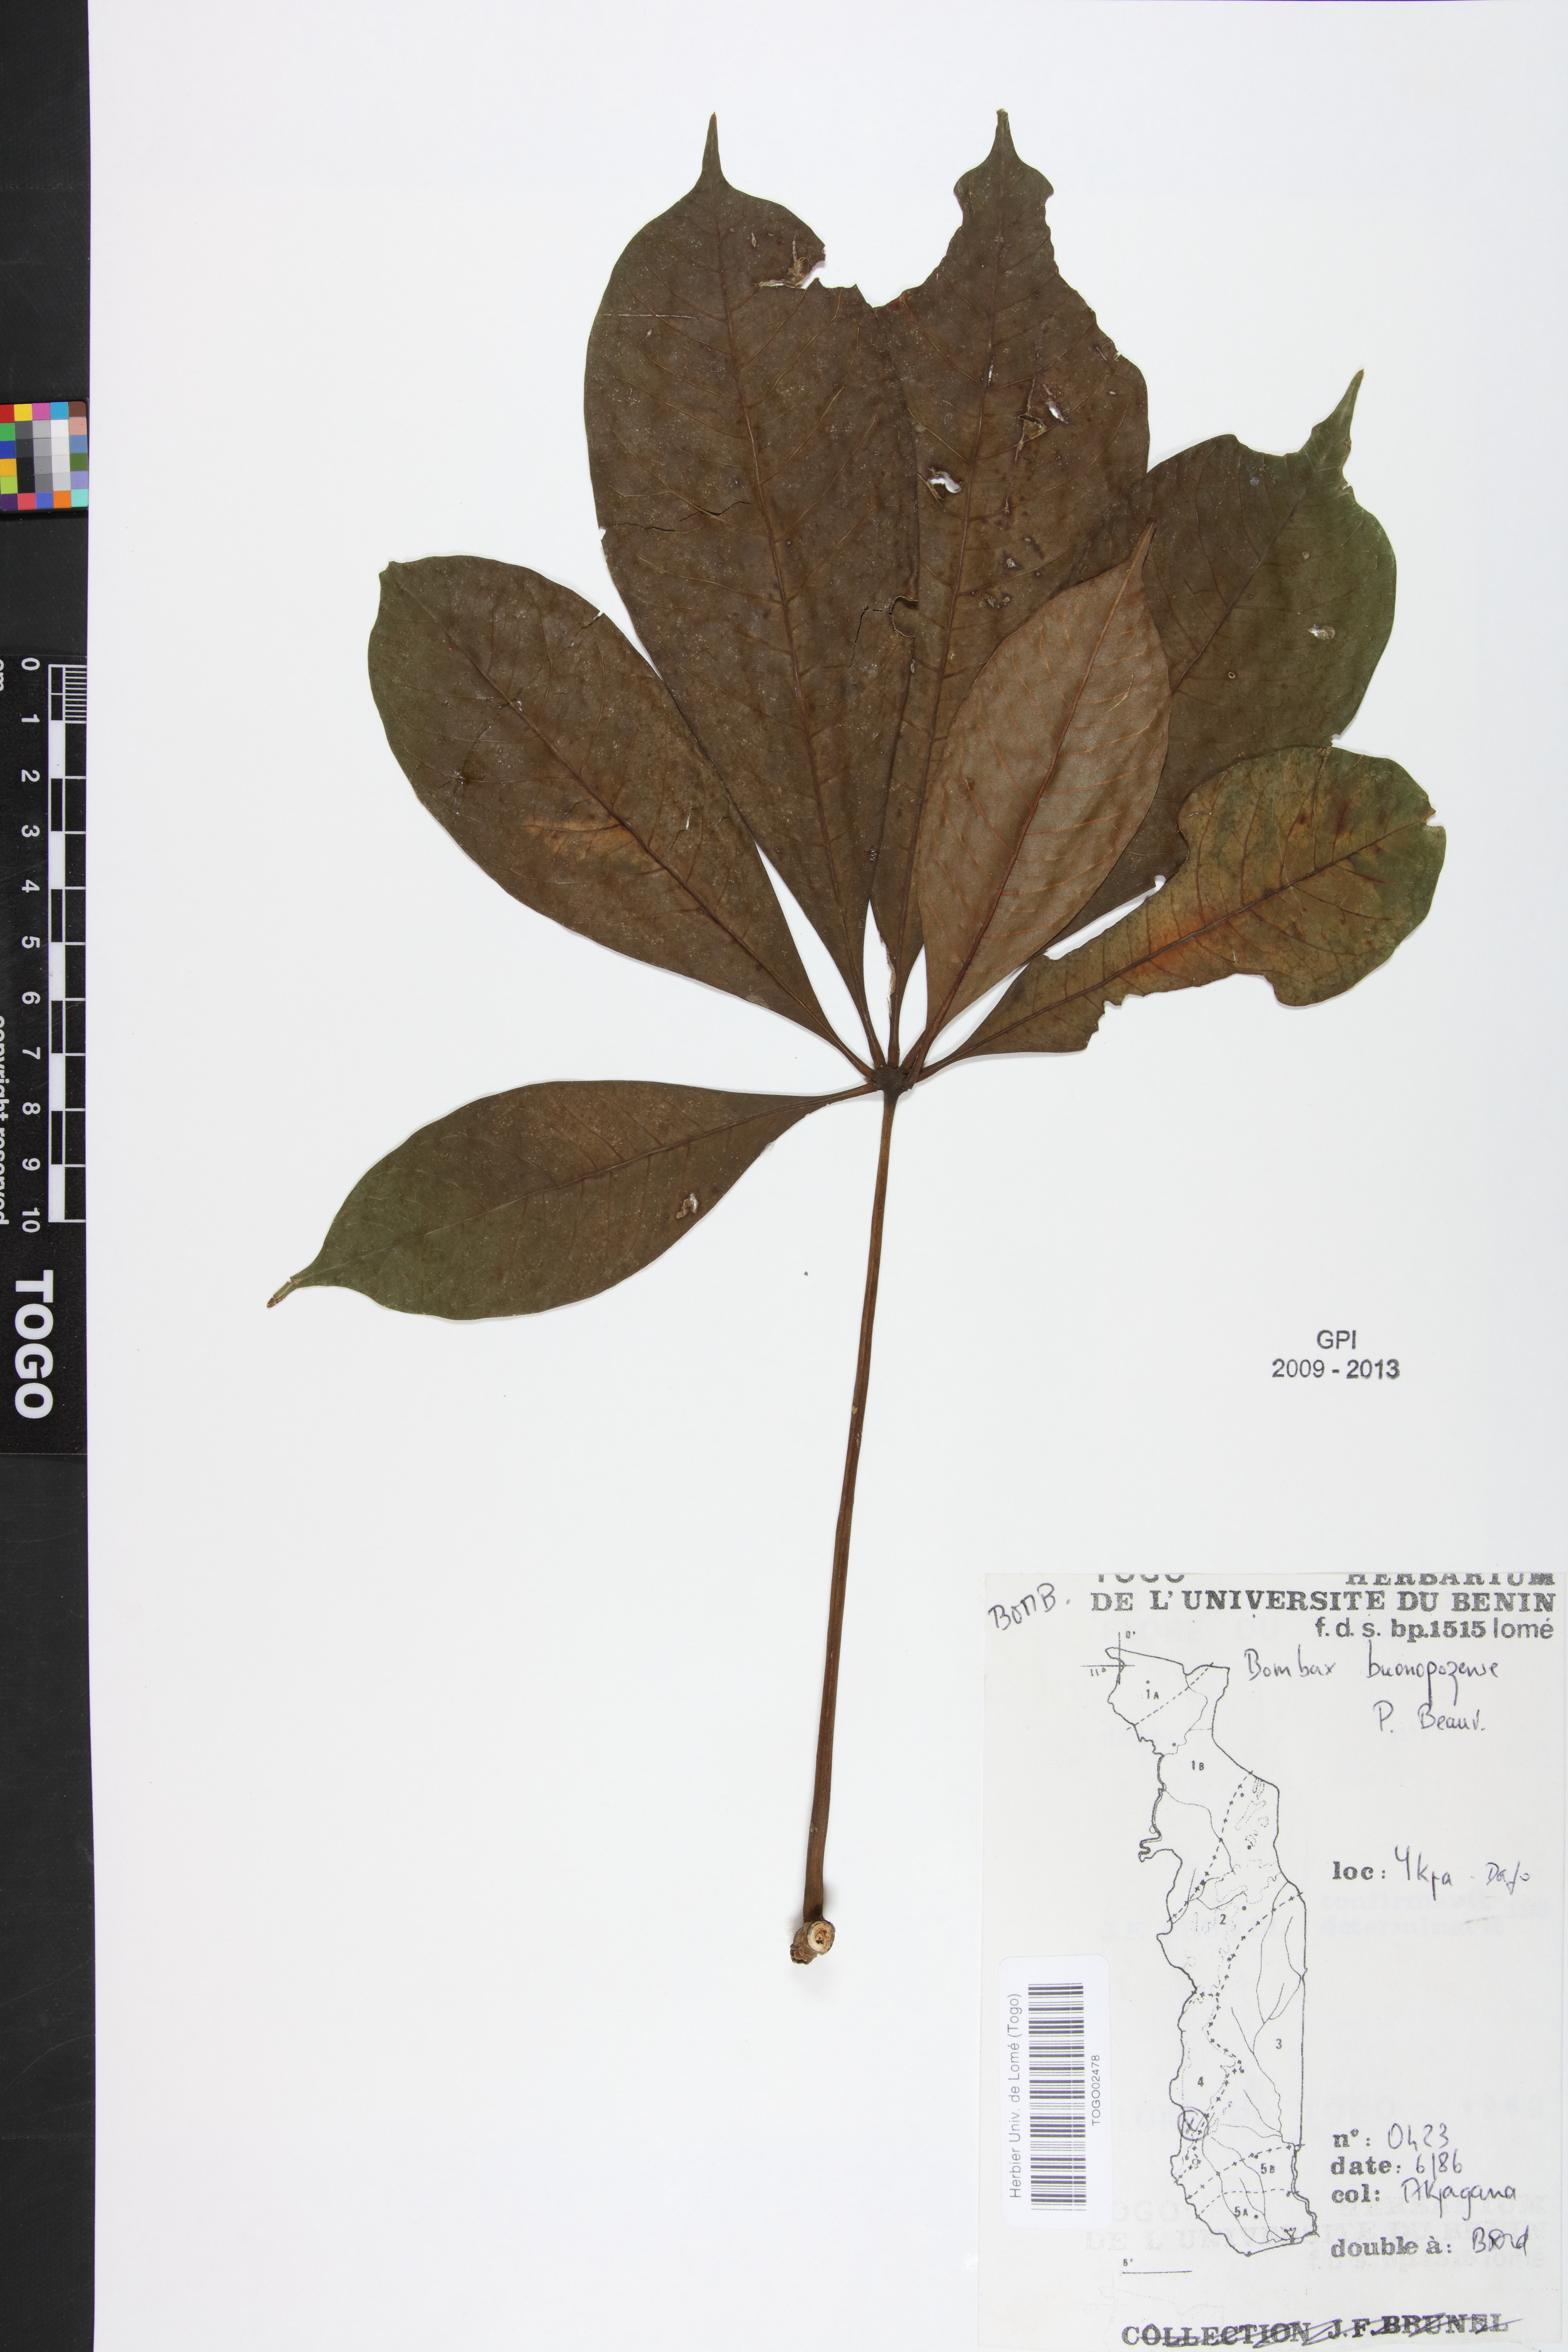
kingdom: Plantae
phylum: Tracheophyta
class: Magnoliopsida
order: Malvales
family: Malvaceae
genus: Bombax
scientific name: Bombax buonopozense
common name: Gold coast bombax
